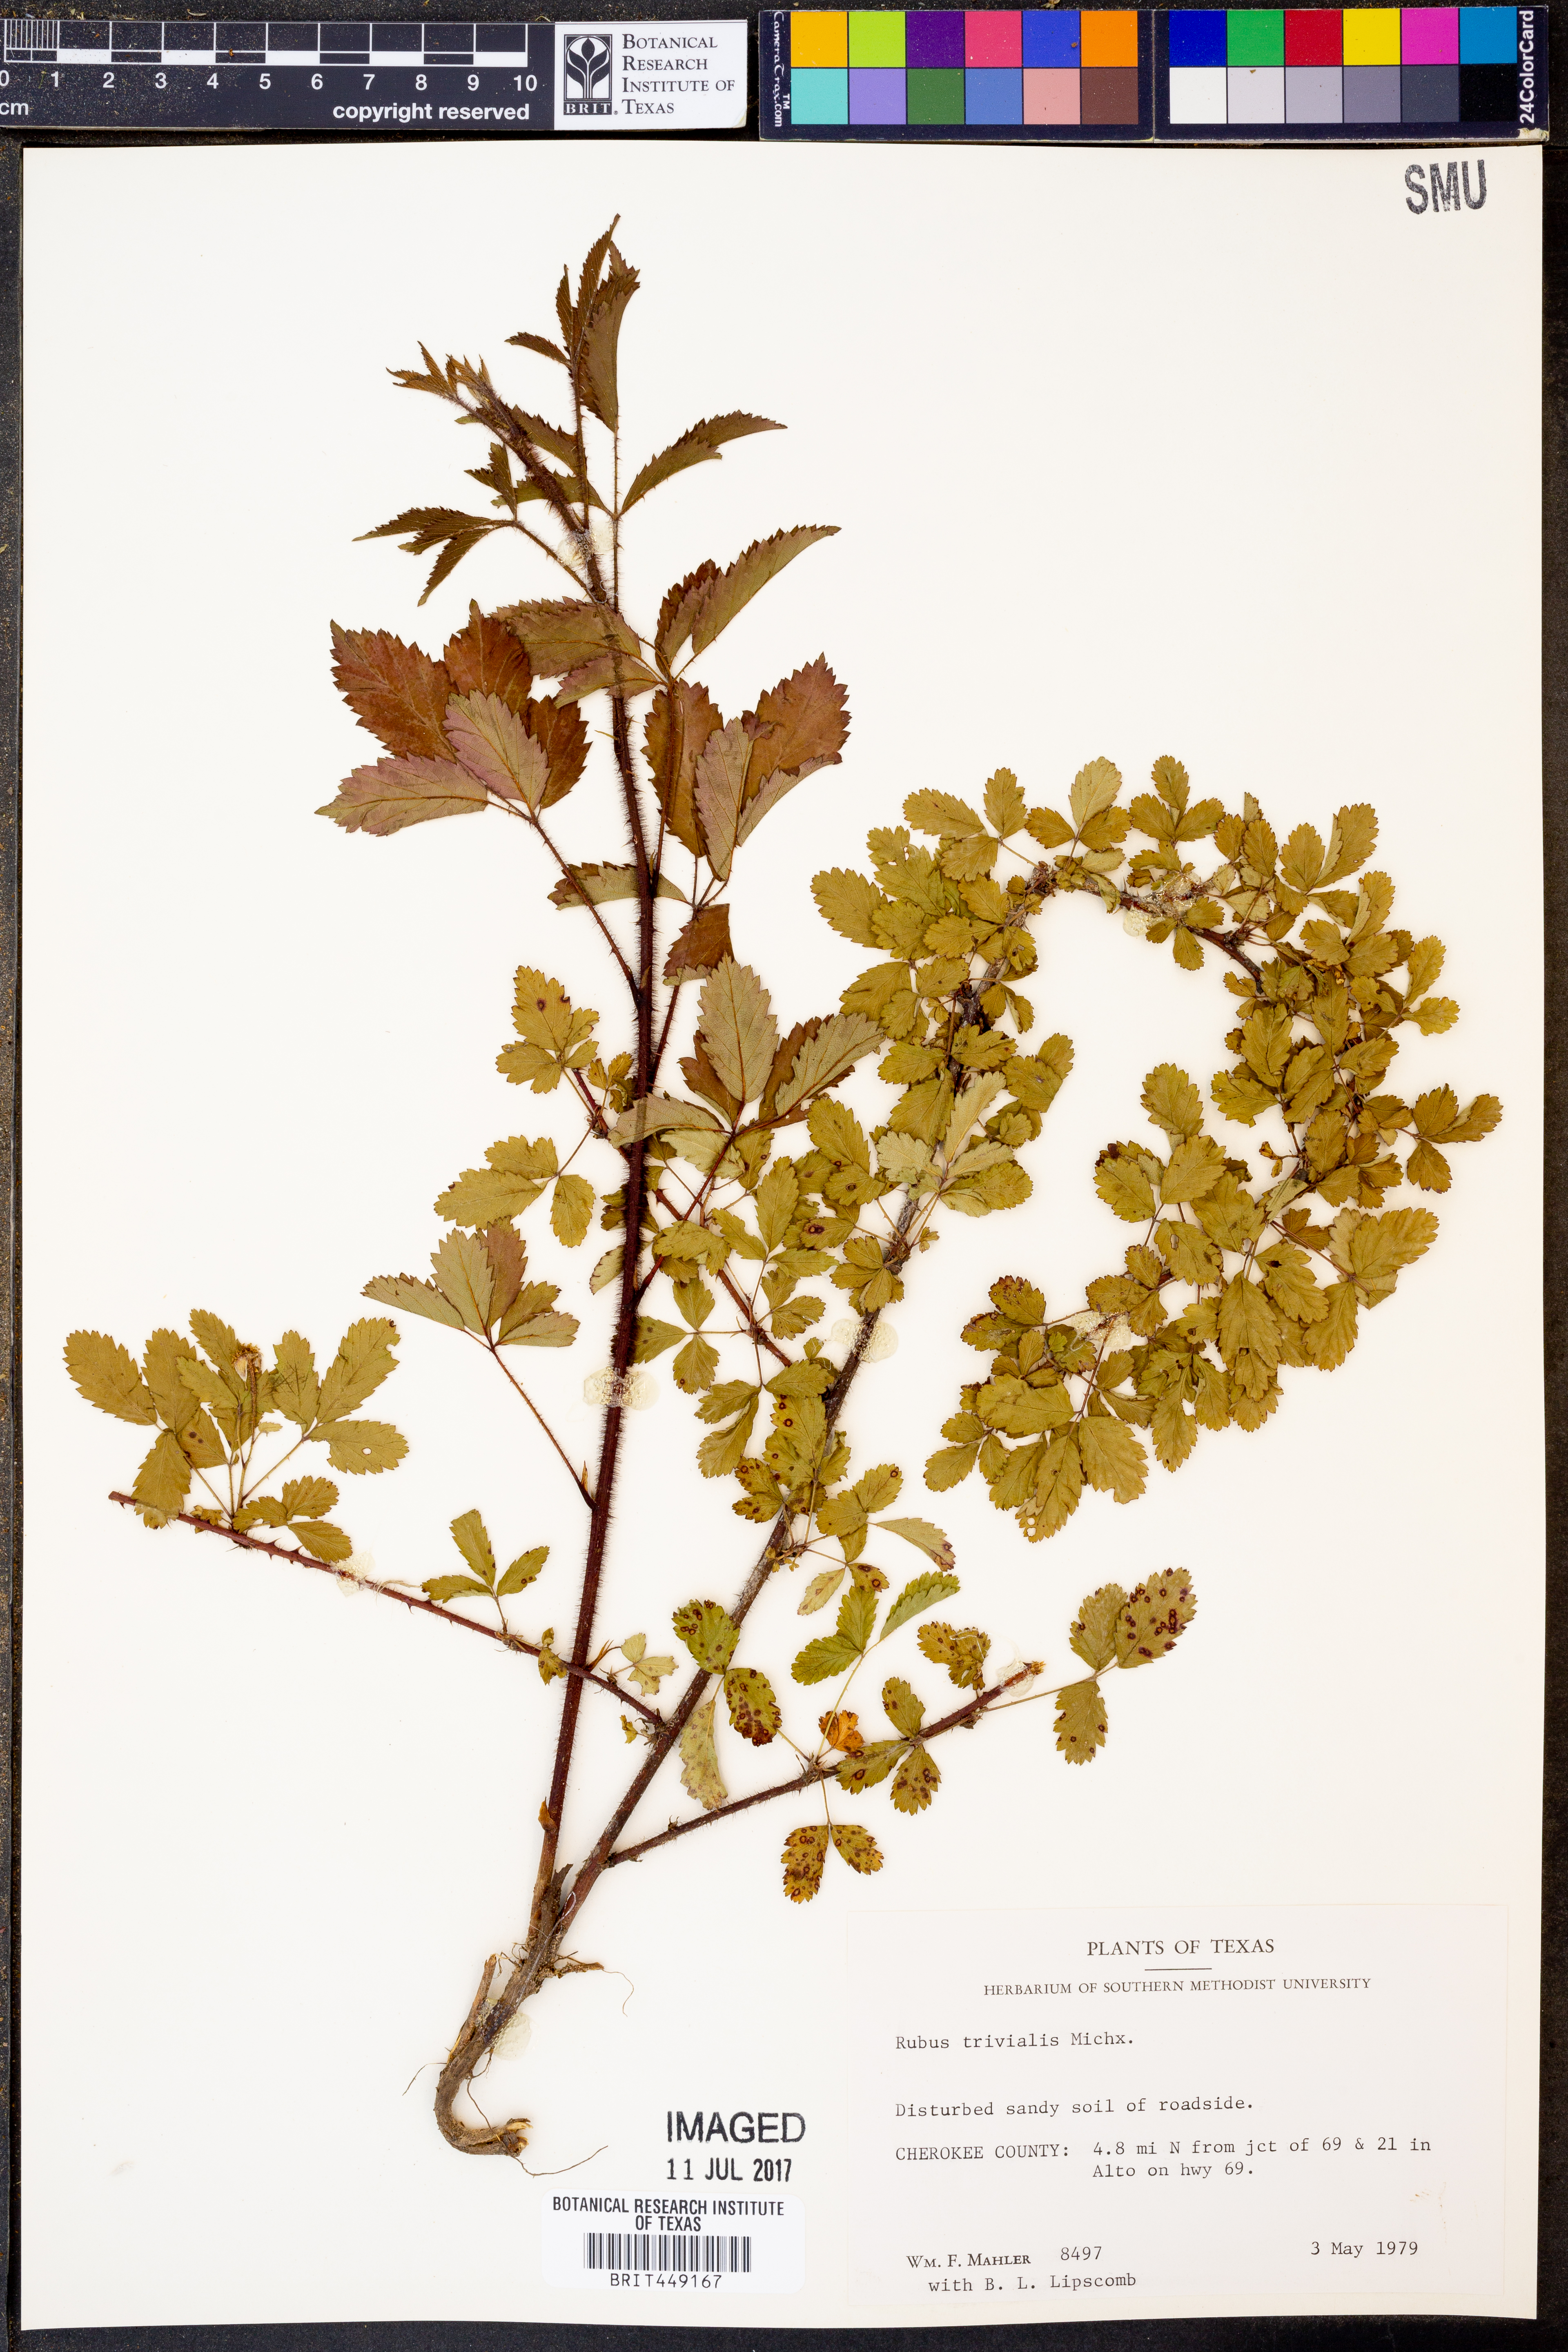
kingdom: Plantae
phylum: Tracheophyta
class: Magnoliopsida
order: Rosales
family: Rosaceae
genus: Rubus
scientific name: Rubus trivialis
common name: Southern dewberry
